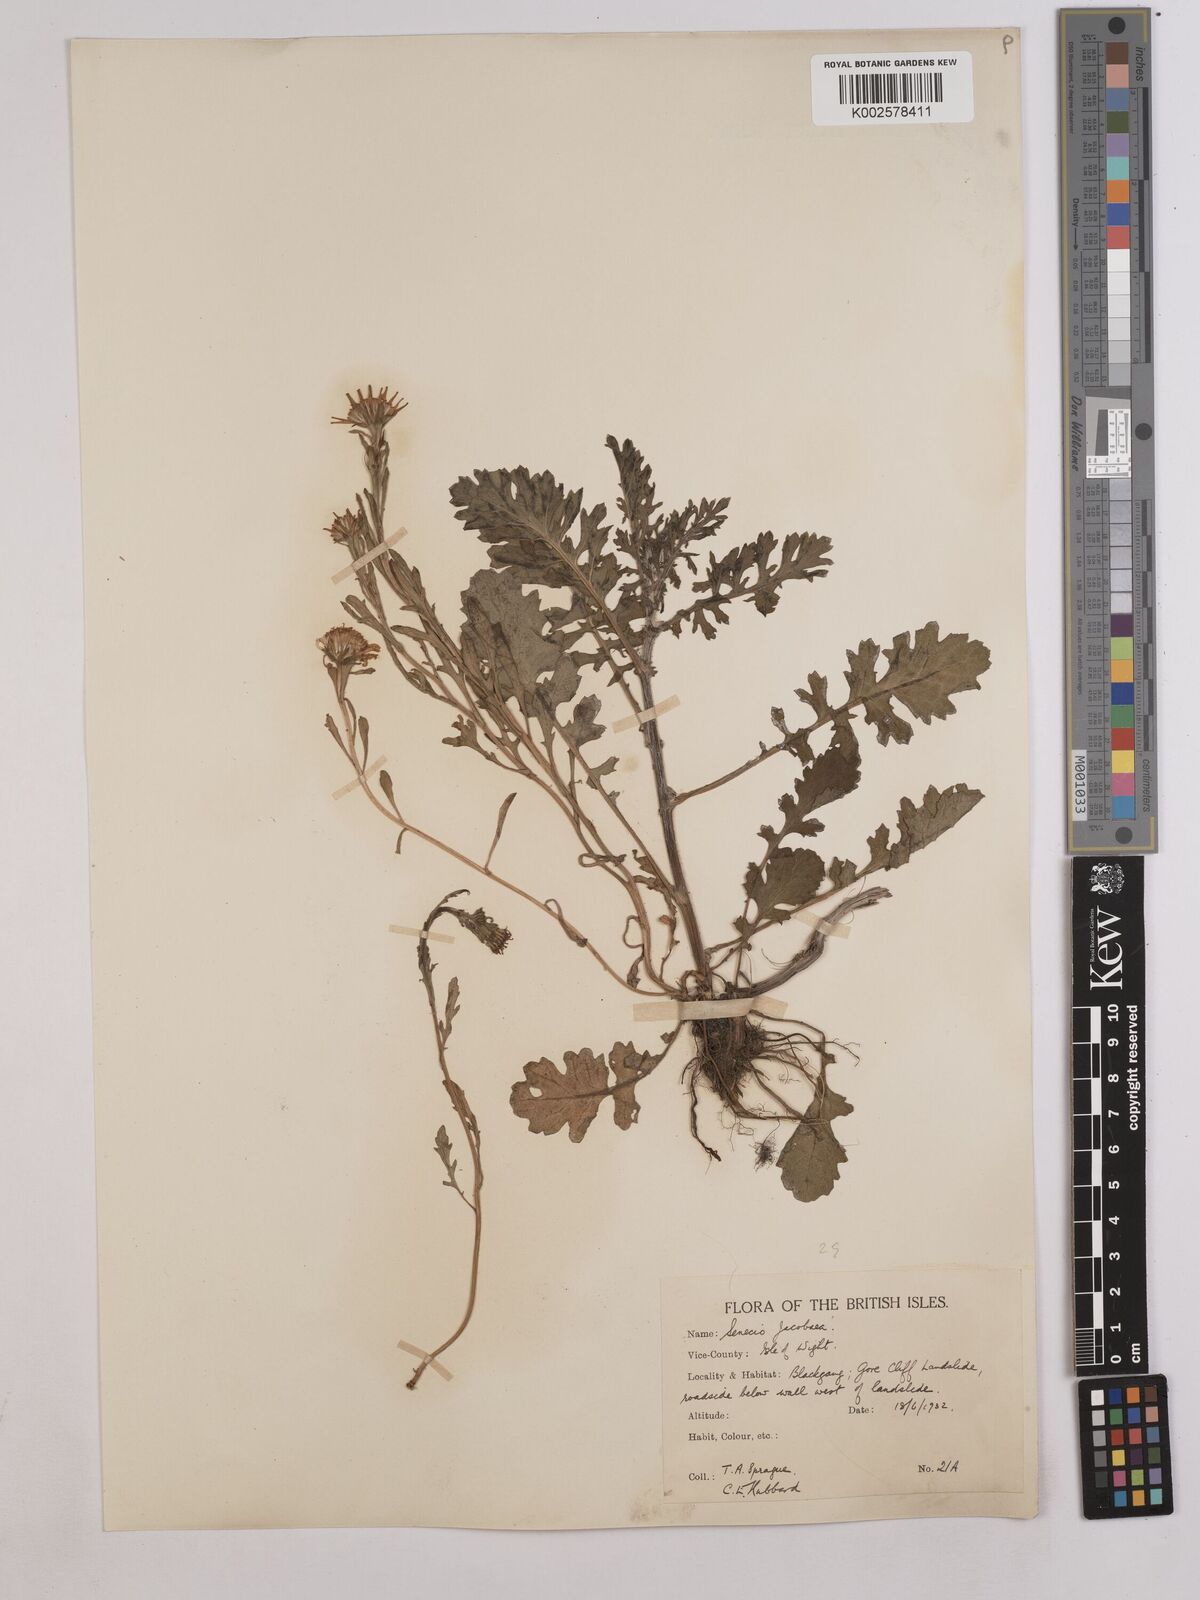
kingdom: Plantae
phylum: Tracheophyta
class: Magnoliopsida
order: Asterales
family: Asteraceae
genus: Jacobaea
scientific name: Jacobaea vulgaris
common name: Stinking willie
